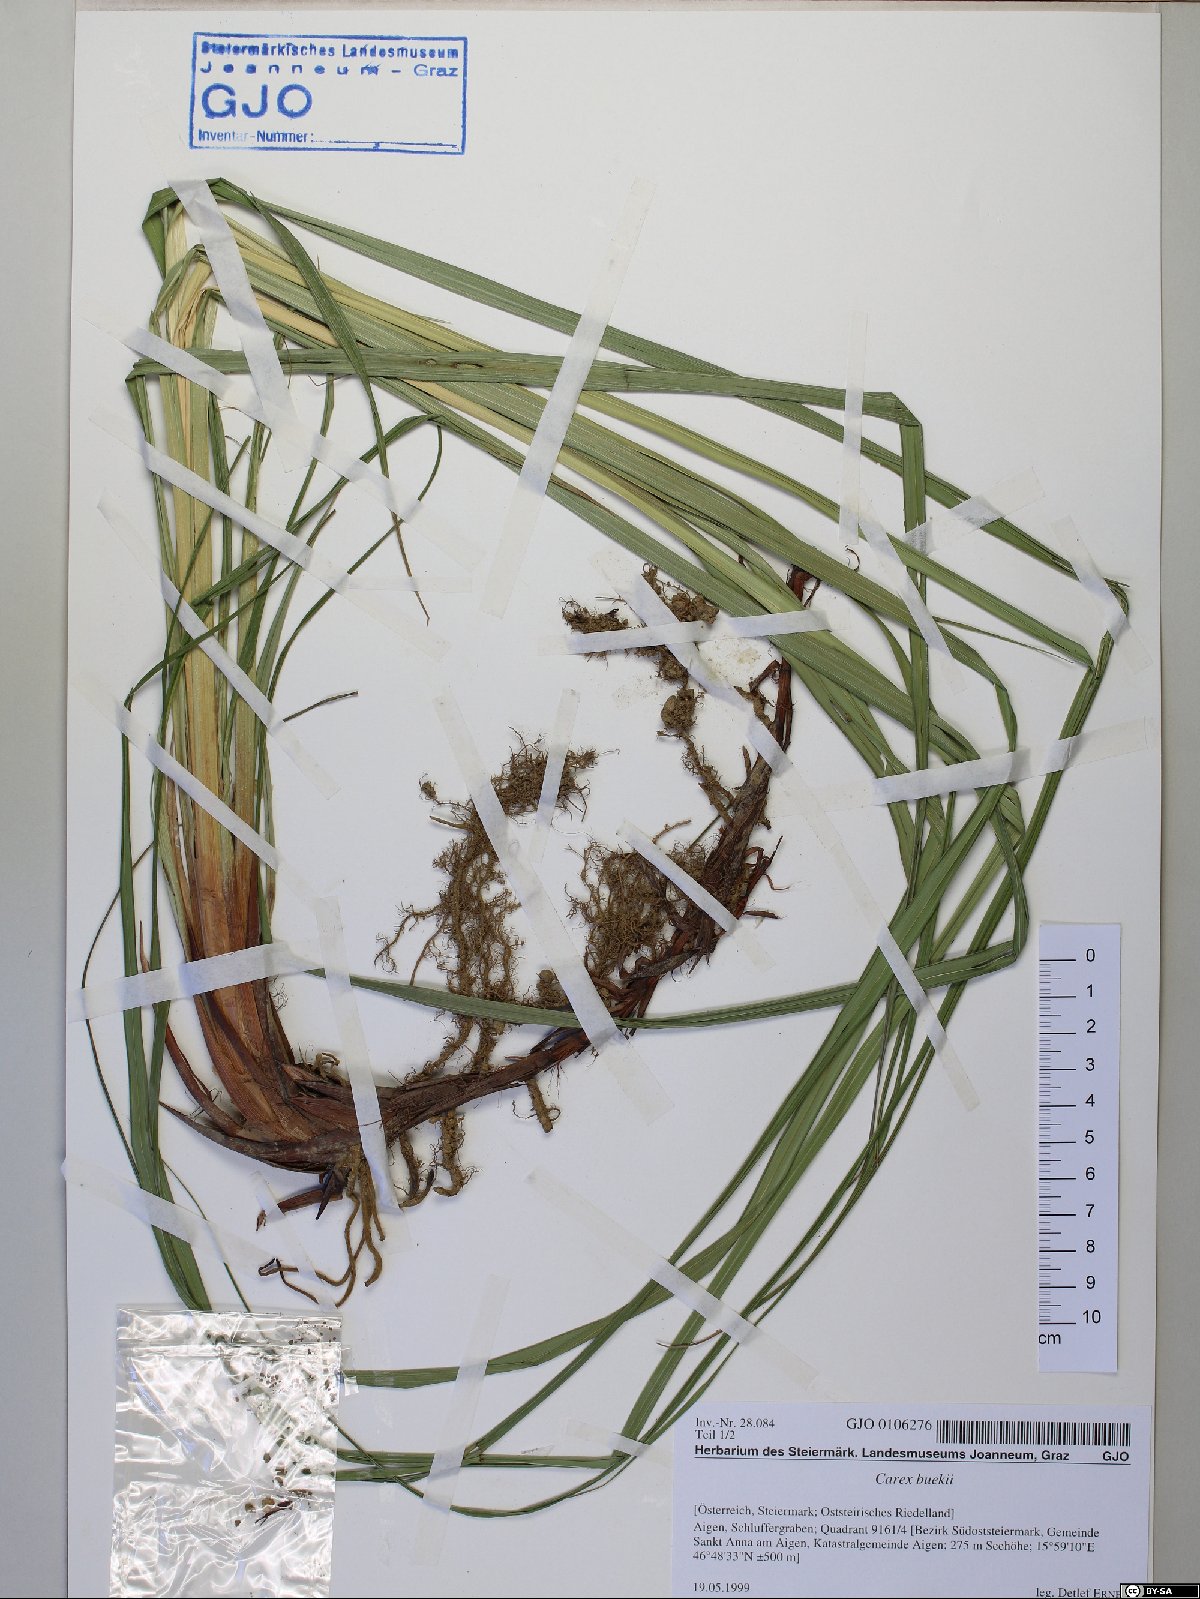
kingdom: Plantae
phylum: Tracheophyta
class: Liliopsida
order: Poales
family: Cyperaceae
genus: Carex
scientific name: Carex buekii
